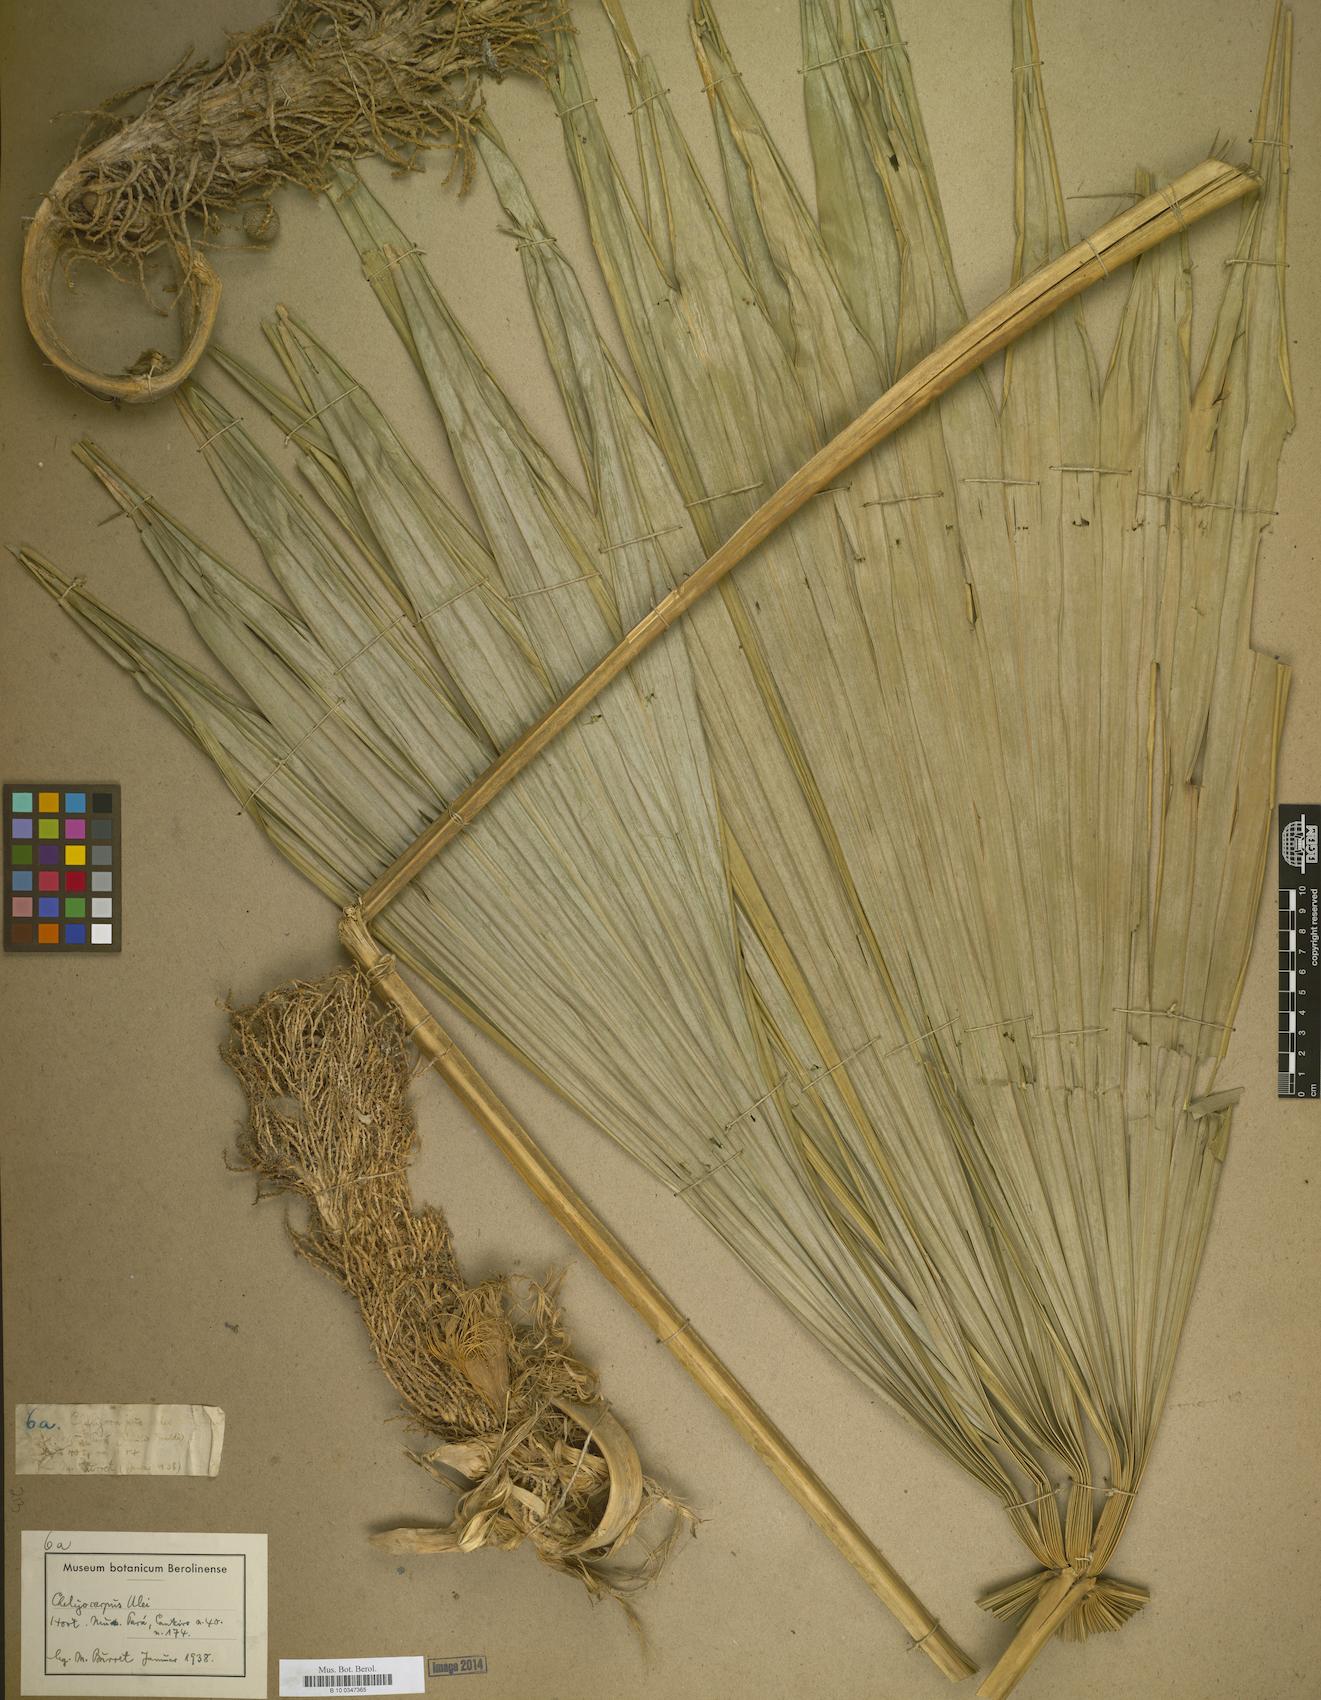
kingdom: Plantae
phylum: Tracheophyta
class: Liliopsida
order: Arecales
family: Arecaceae
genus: Chelyocarpus
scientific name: Chelyocarpus ulei
